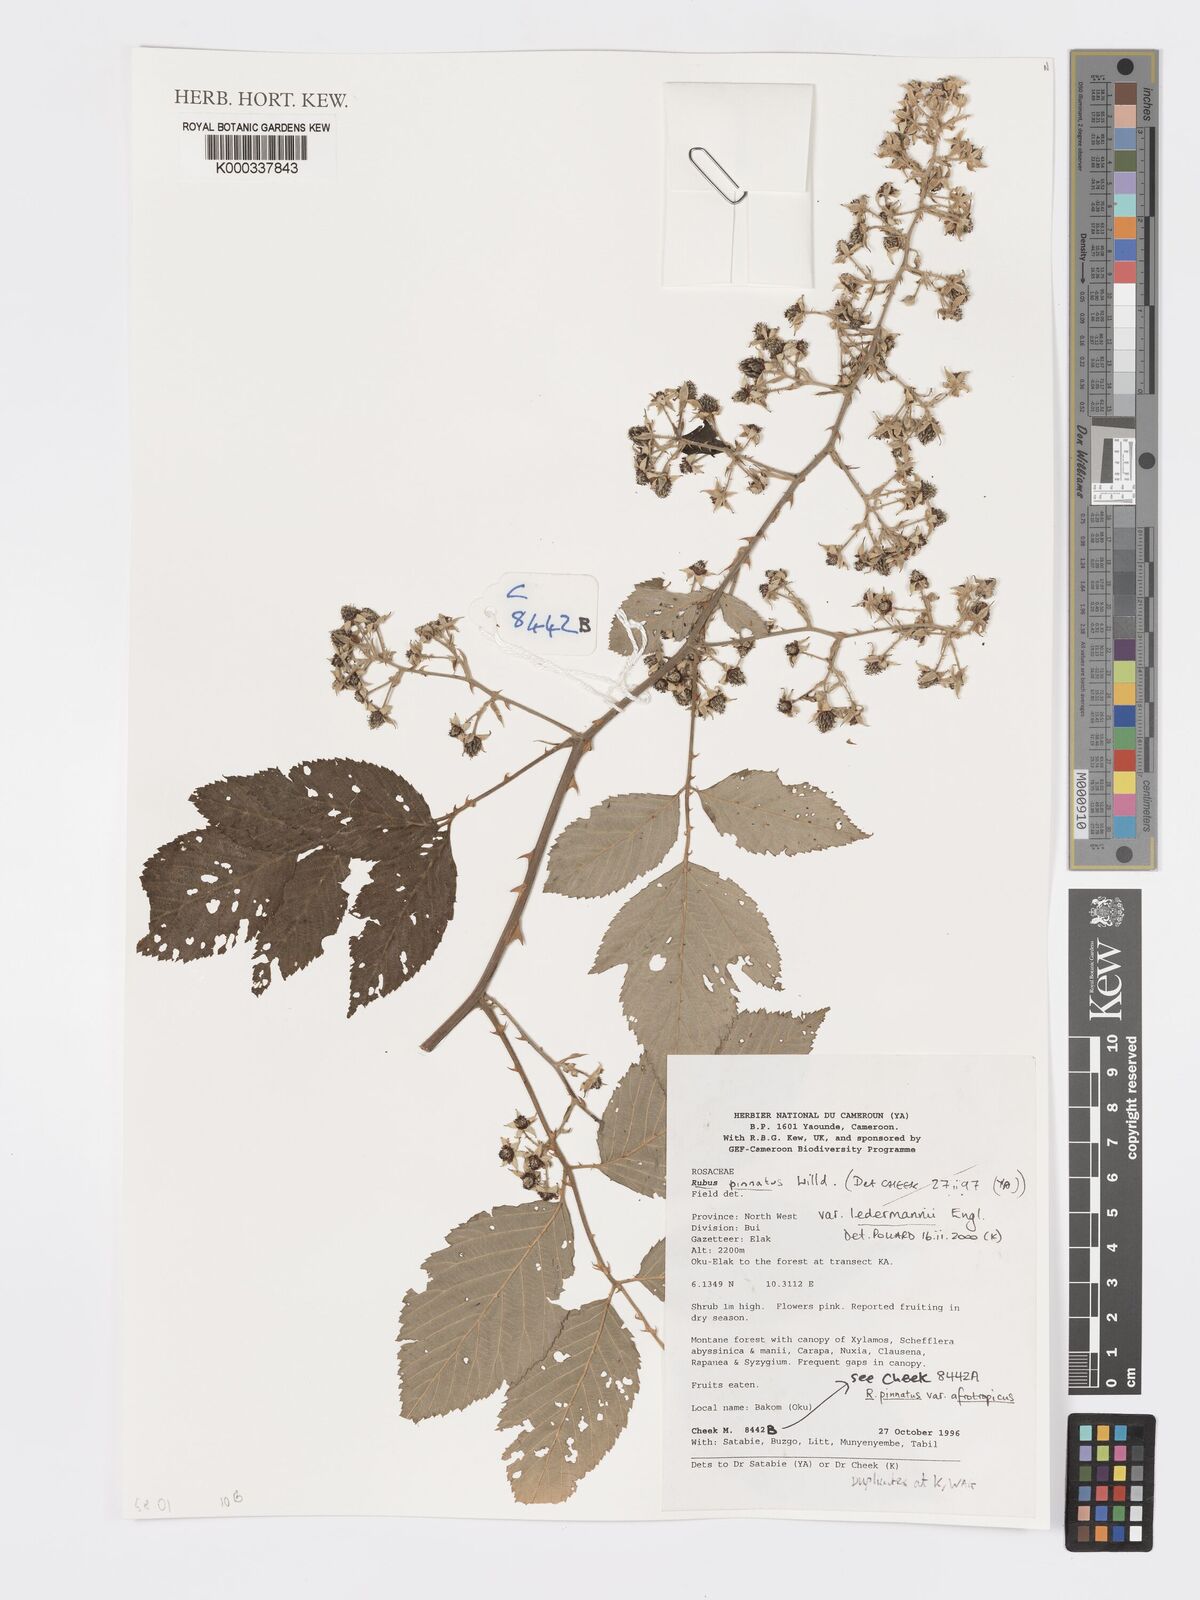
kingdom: Plantae
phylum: Tracheophyta
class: Magnoliopsida
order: Rosales
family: Rosaceae
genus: Rubus
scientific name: Rubus pinnatus
